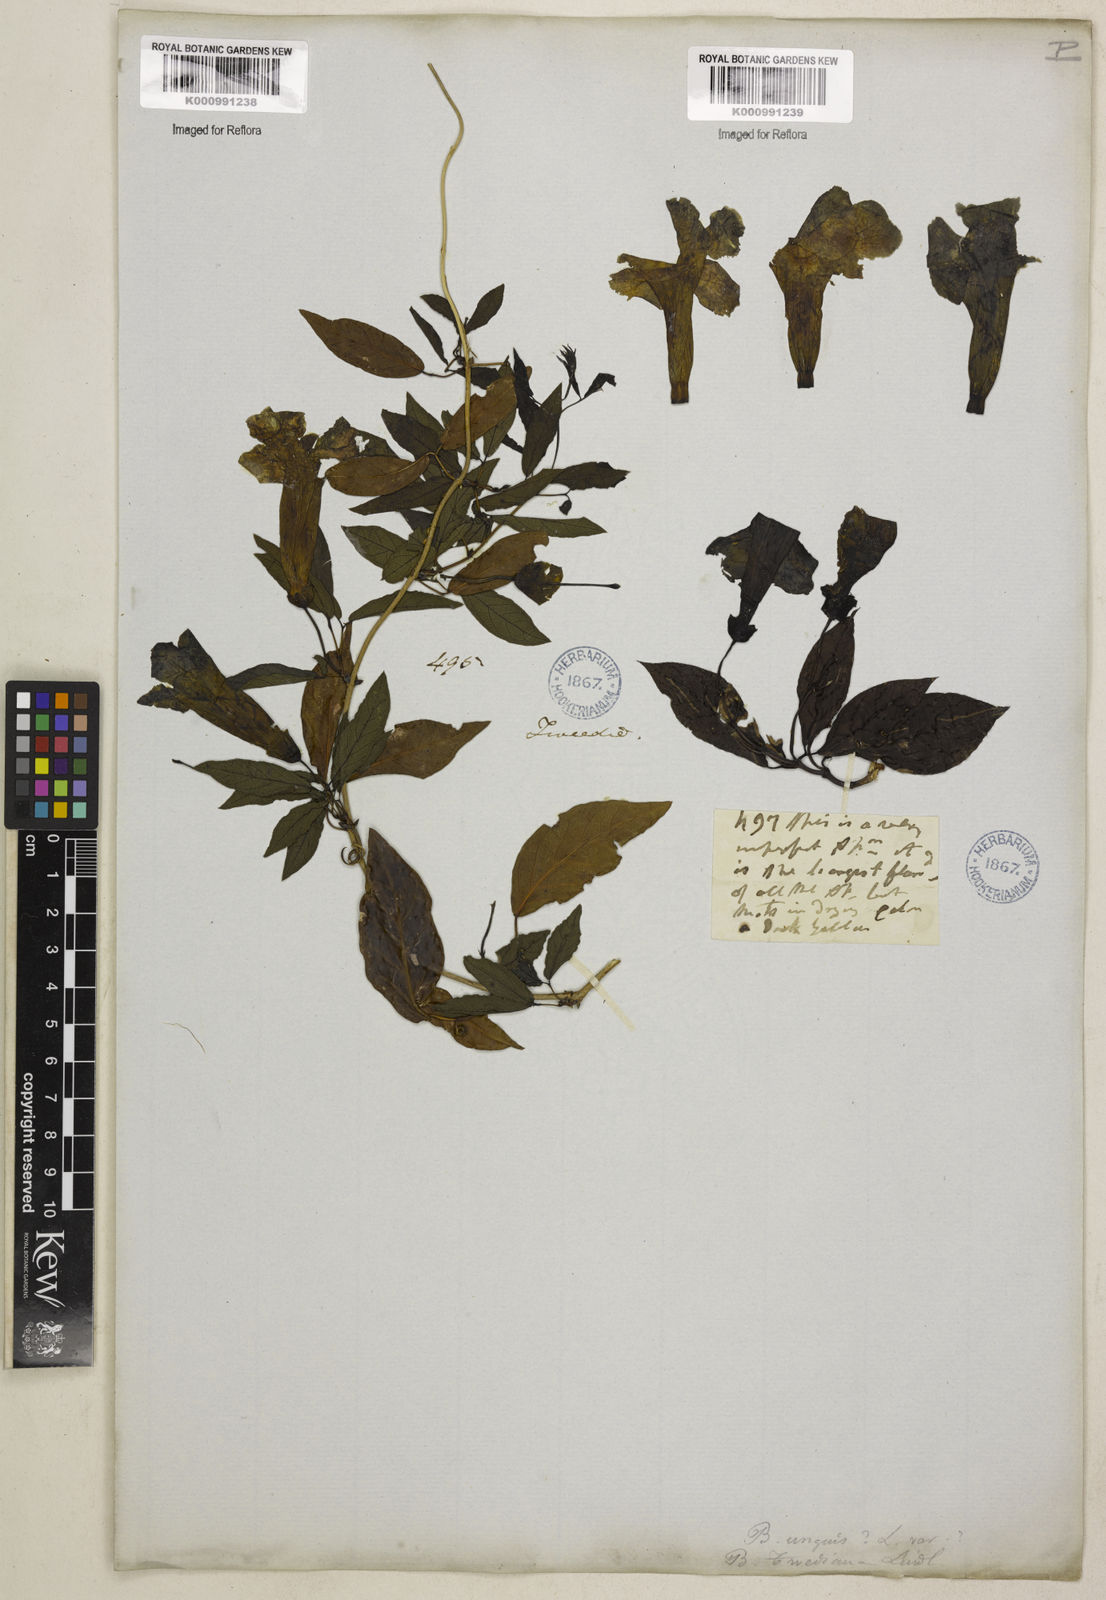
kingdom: Plantae
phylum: Tracheophyta
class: Magnoliopsida
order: Lamiales
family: Bignoniaceae
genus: Dolichandra
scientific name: Dolichandra unguis-cati
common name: Catclaw vine
